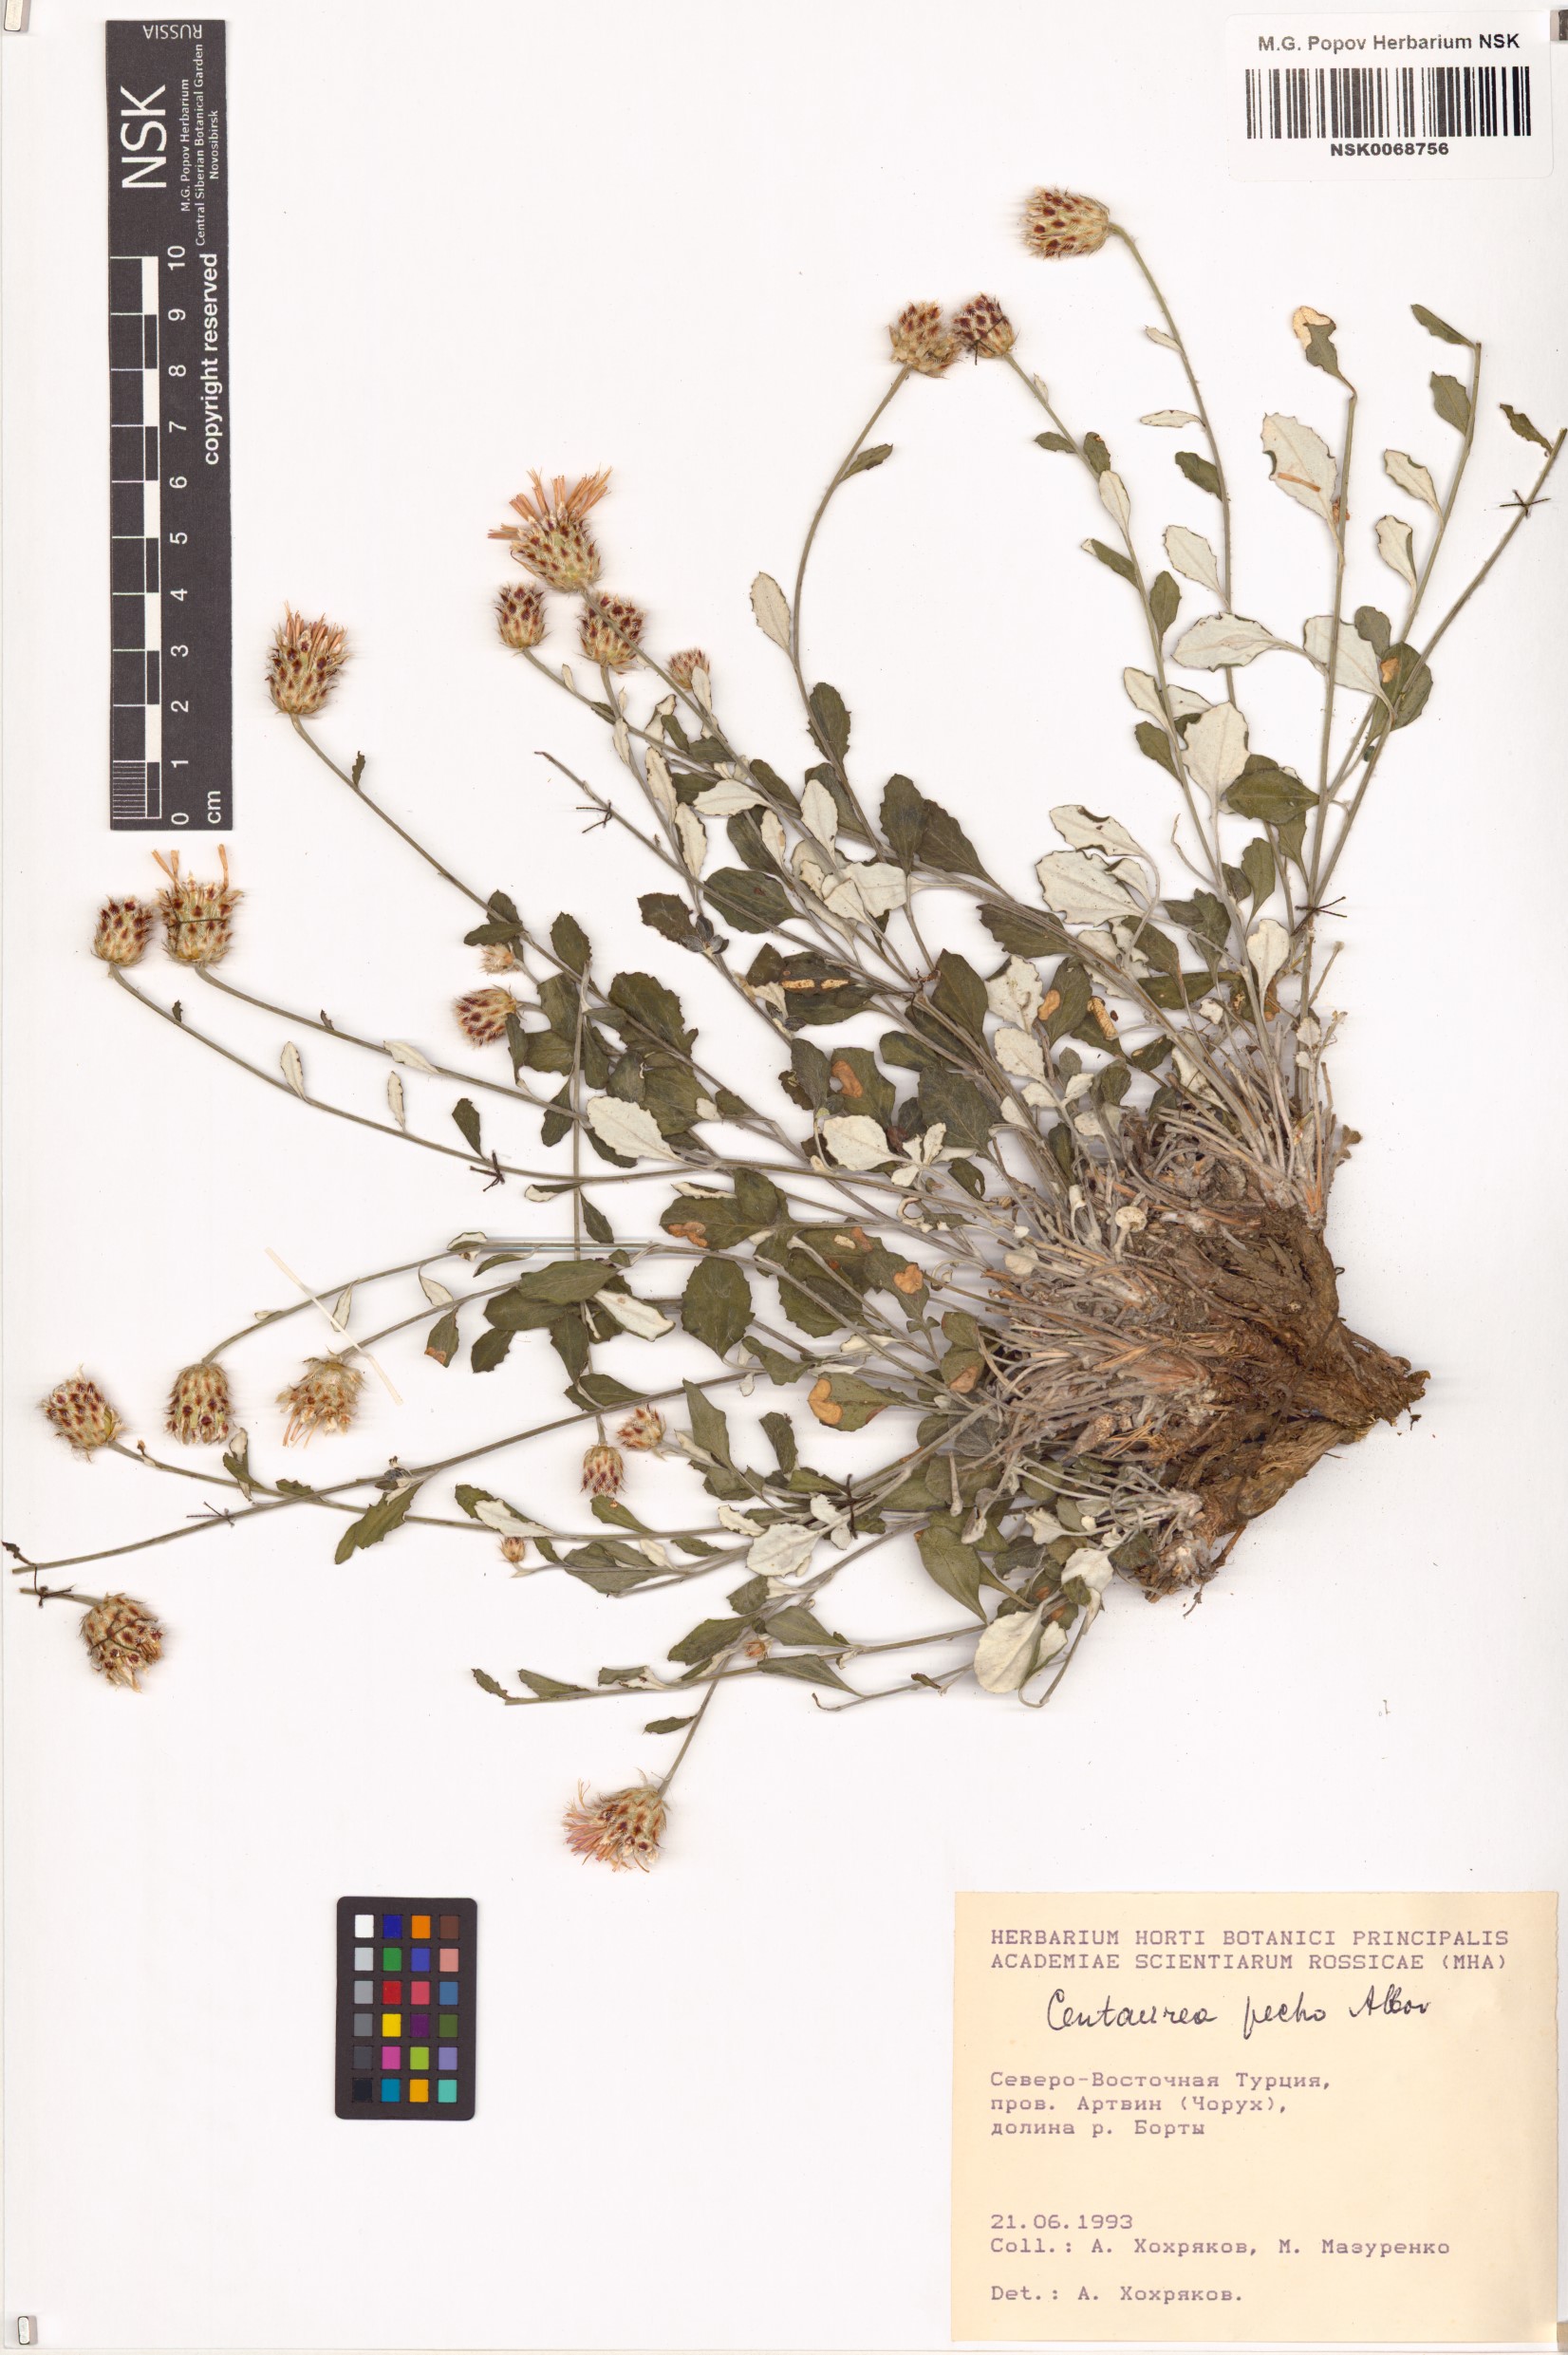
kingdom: Plantae
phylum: Tracheophyta
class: Magnoliopsida
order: Asterales
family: Asteraceae
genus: Psephellus
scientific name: Psephellus pecho
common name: Centaury
